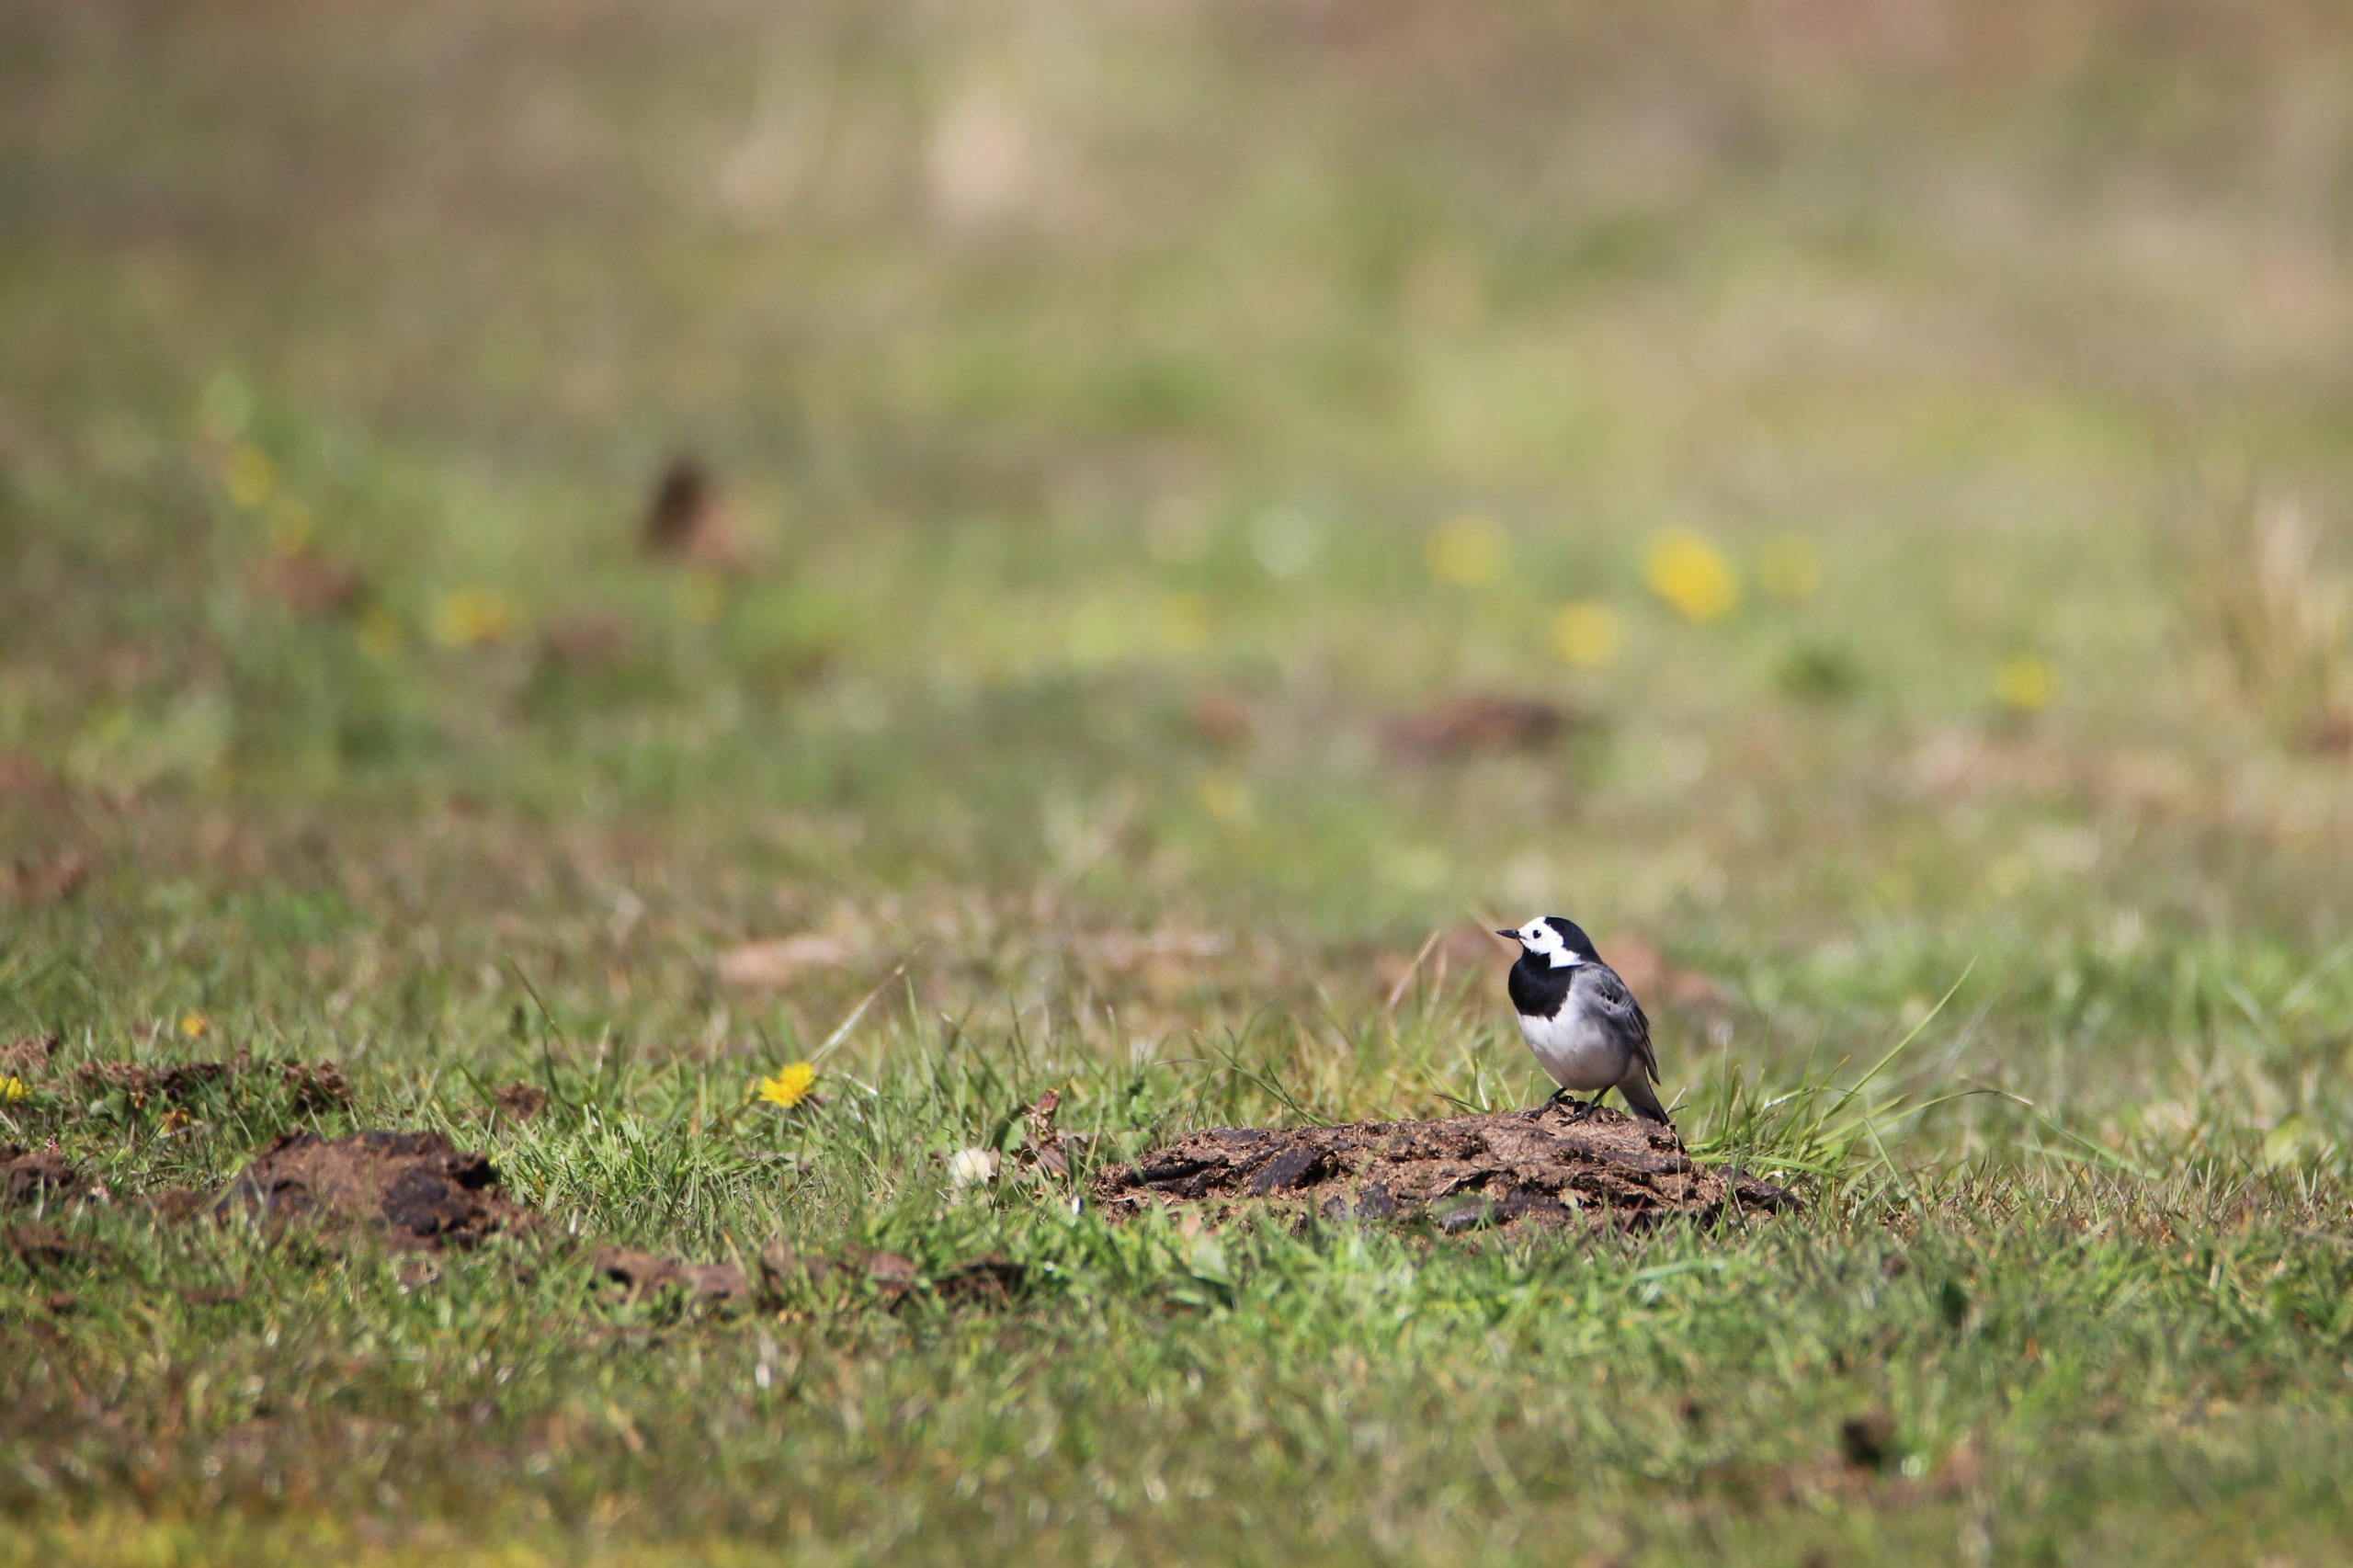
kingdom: Animalia
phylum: Chordata
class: Aves
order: Passeriformes
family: Motacillidae
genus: Motacilla
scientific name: Motacilla alba
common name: Hvid vipstjert
